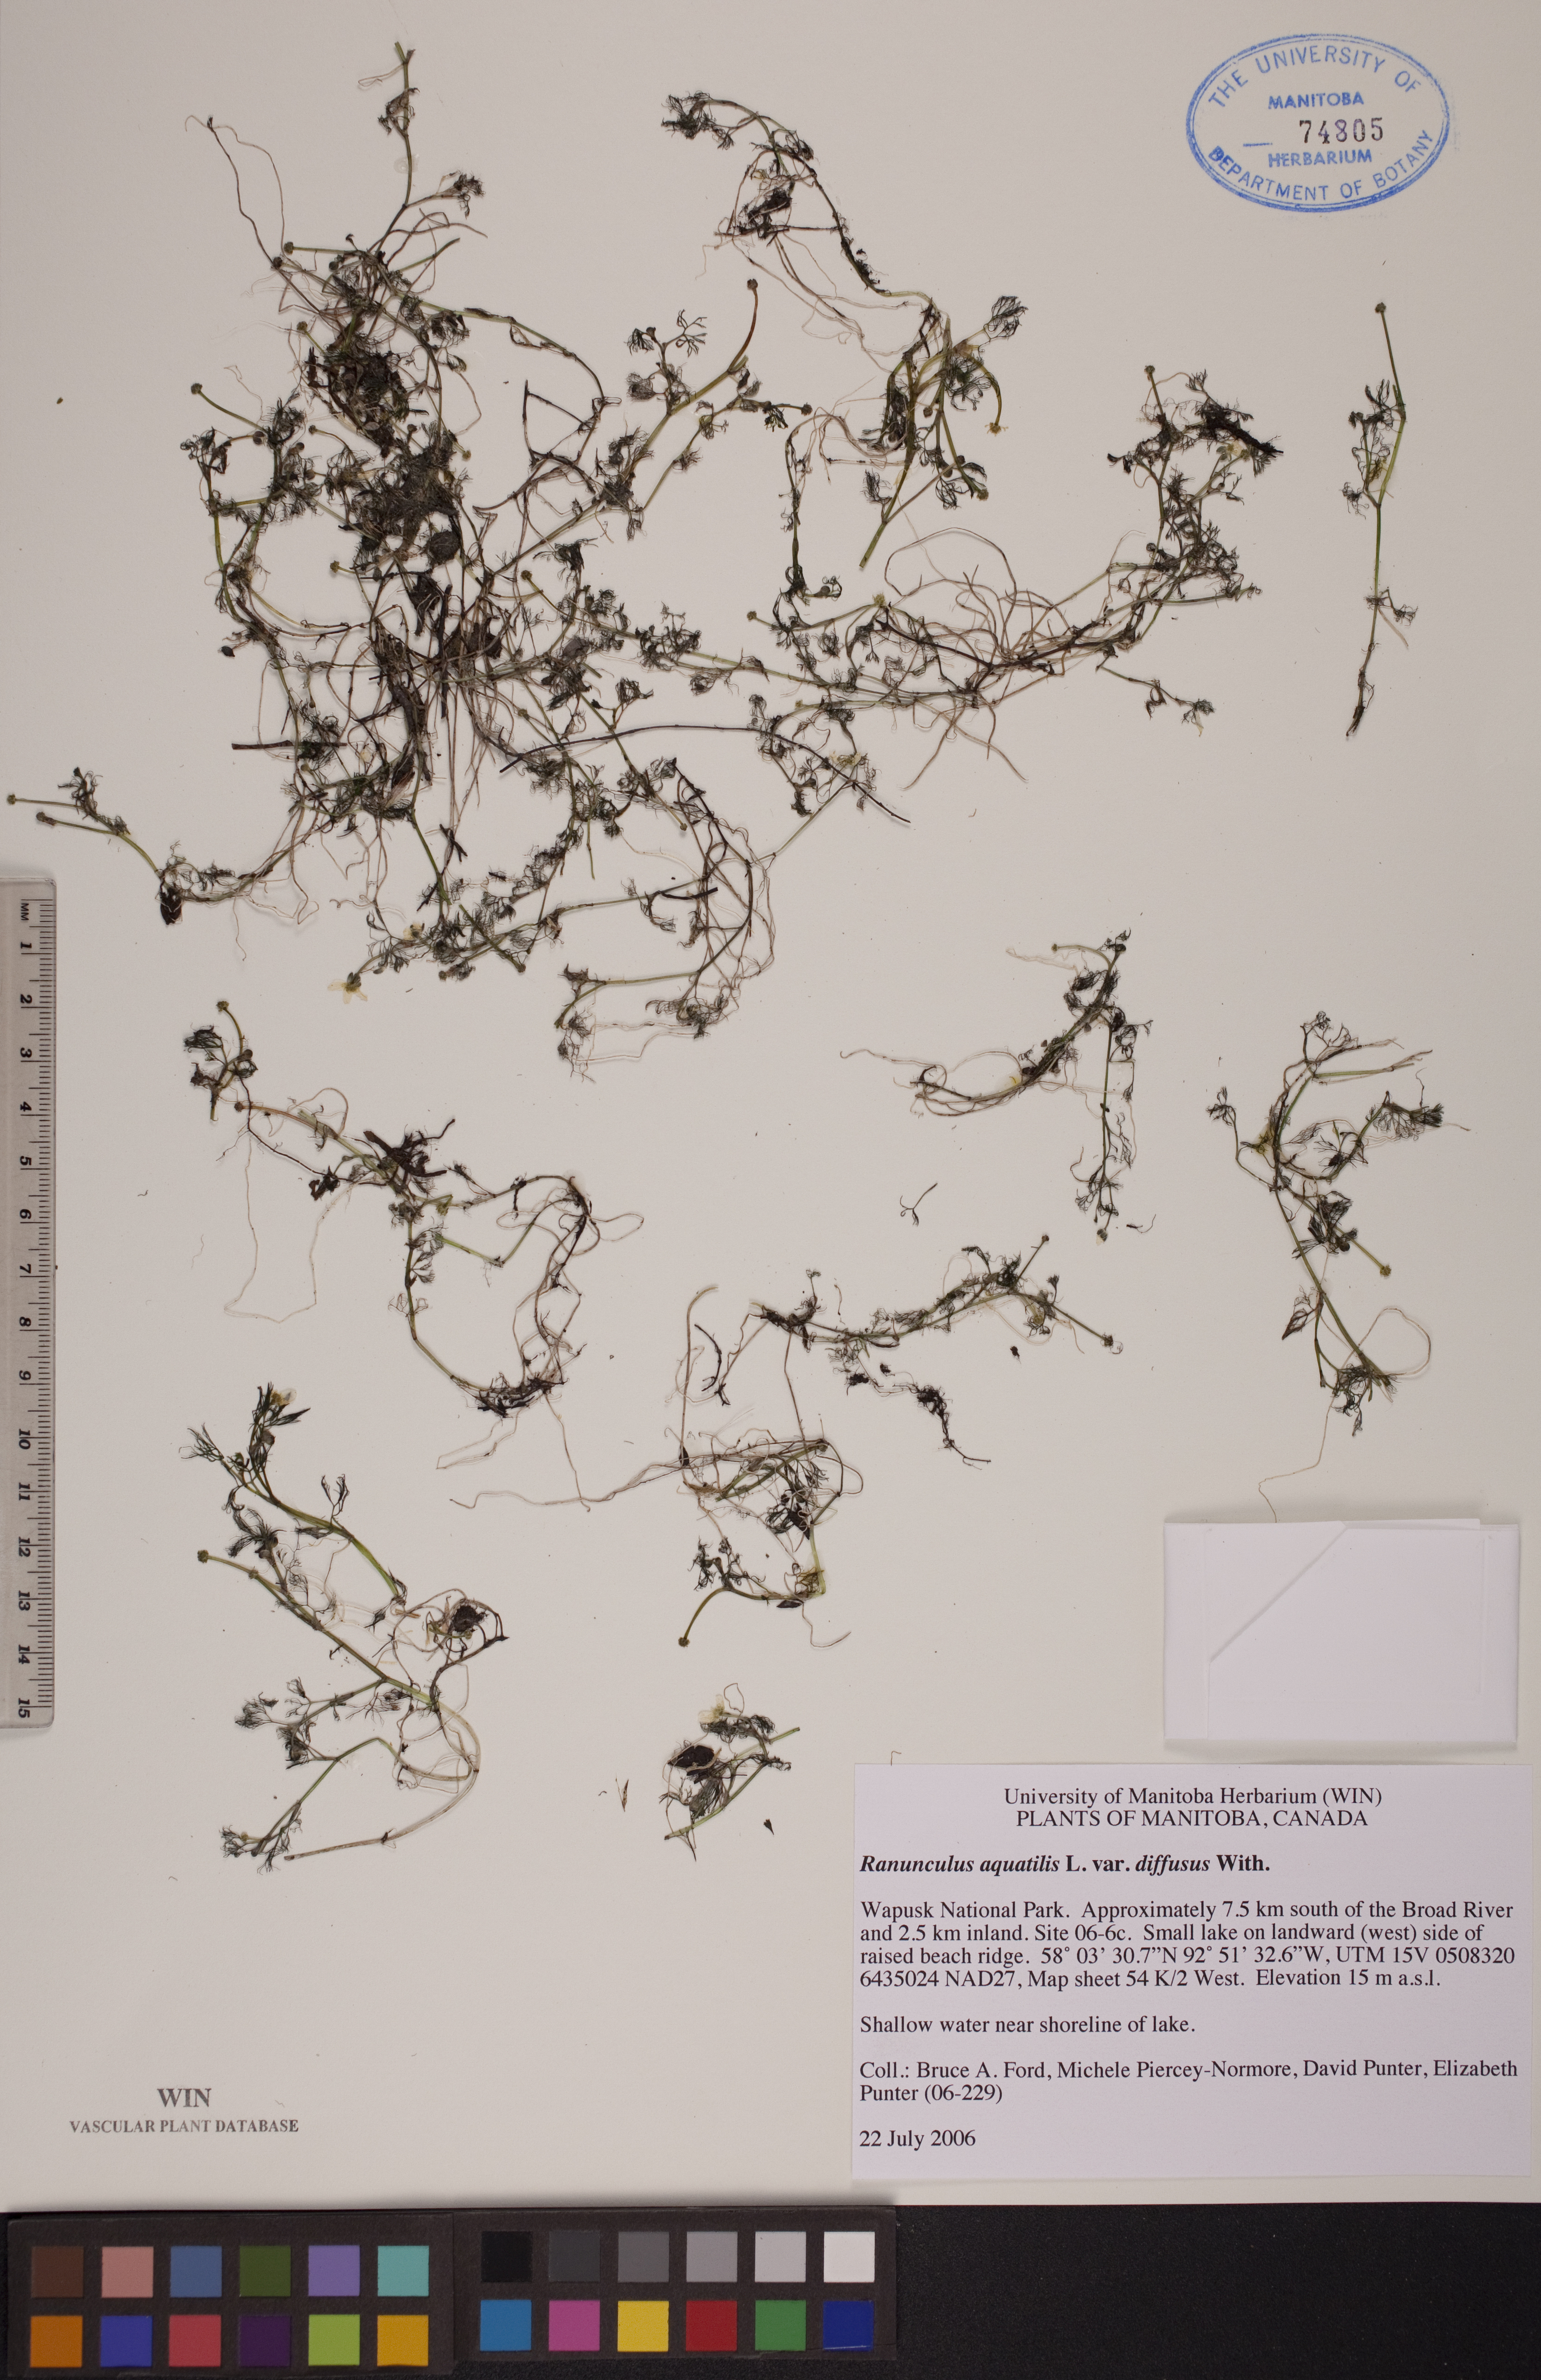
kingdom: Plantae
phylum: Tracheophyta
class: Magnoliopsida
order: Ranunculales
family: Ranunculaceae
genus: Ranunculus
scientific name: Ranunculus trichophyllus
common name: Thread-leaved water-crowfoot
